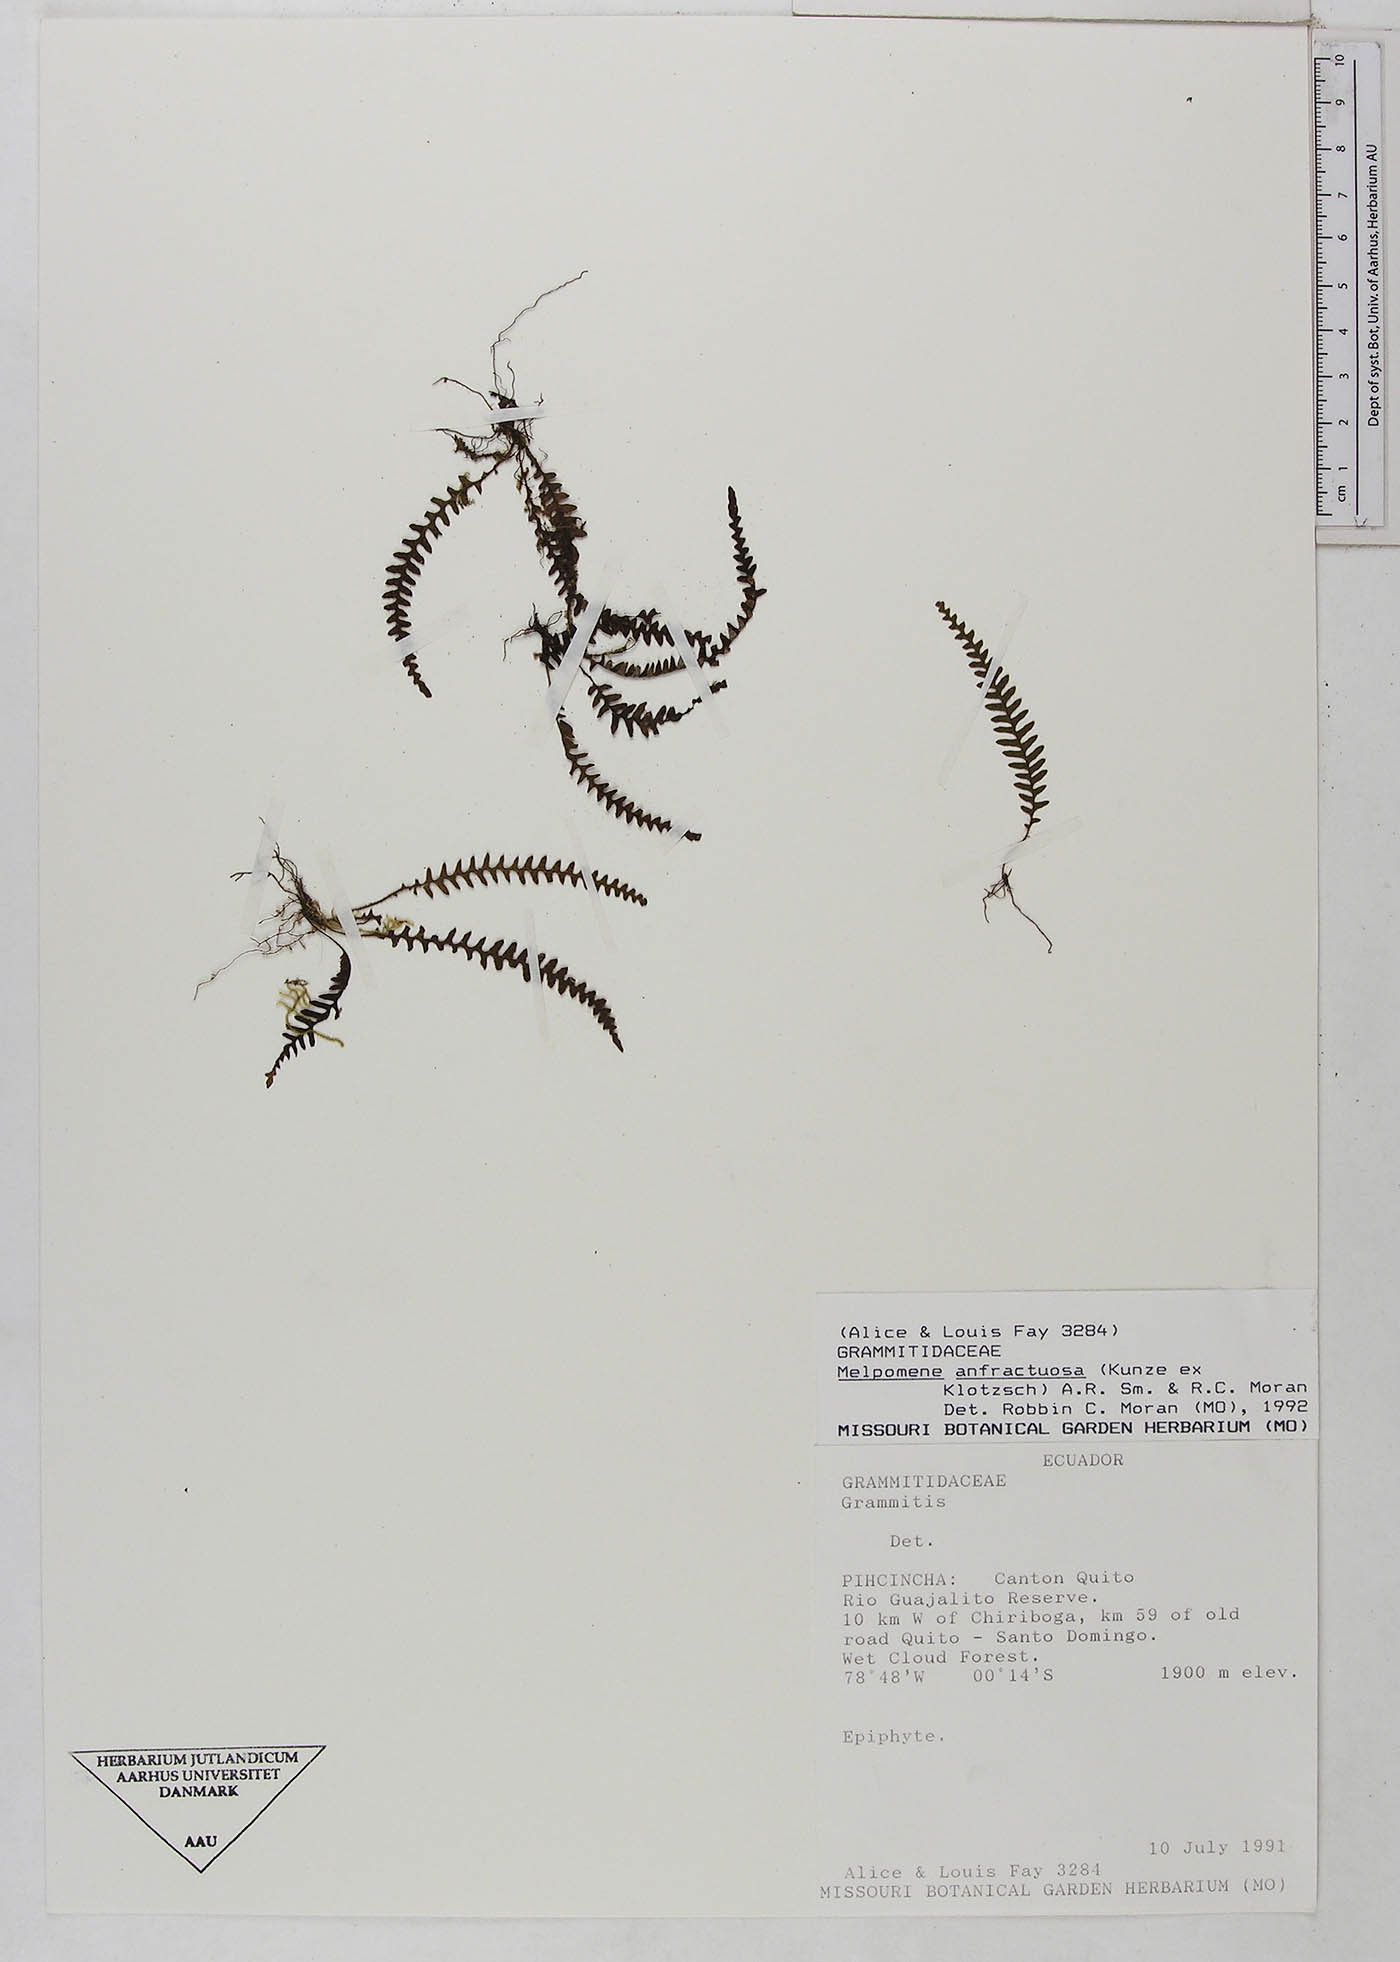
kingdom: Plantae
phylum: Tracheophyta
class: Polypodiopsida
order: Polypodiales
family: Polypodiaceae
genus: Ascogrammitis
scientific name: Ascogrammitis anfractuosa
